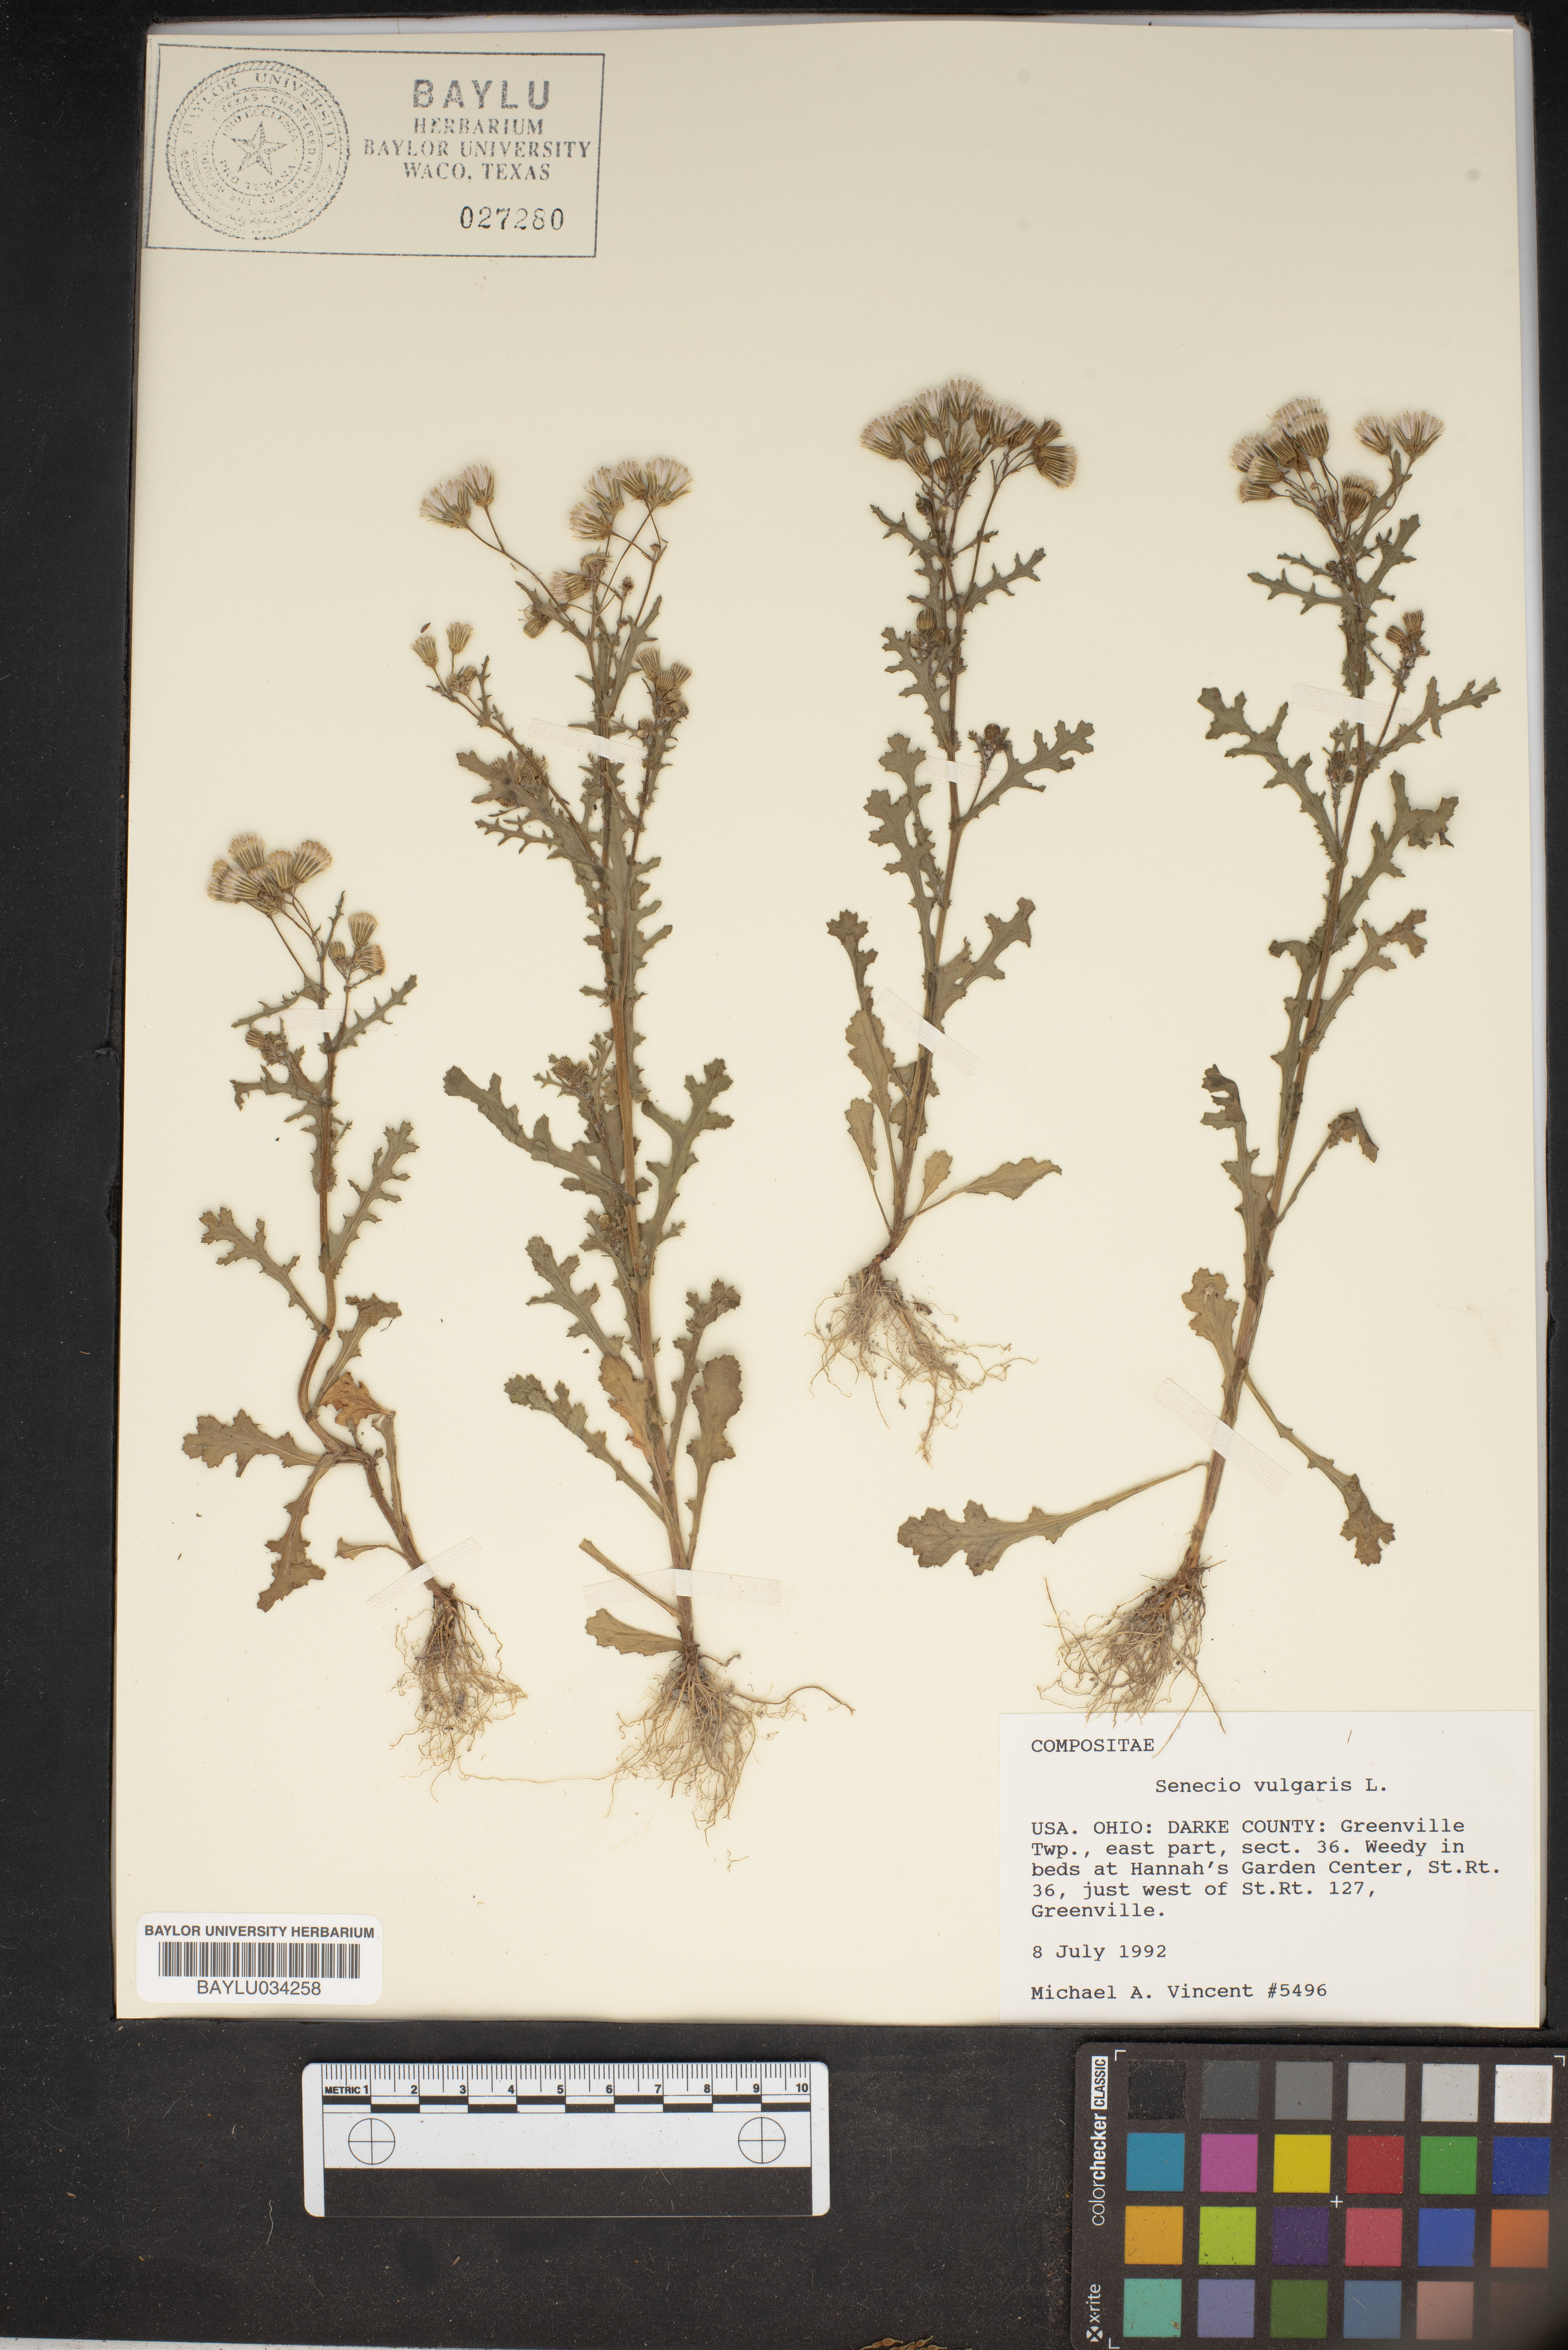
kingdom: Plantae
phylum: Tracheophyta
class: Magnoliopsida
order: Asterales
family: Asteraceae
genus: Senecio
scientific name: Senecio vulgaris
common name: Old-man-in-the-spring
